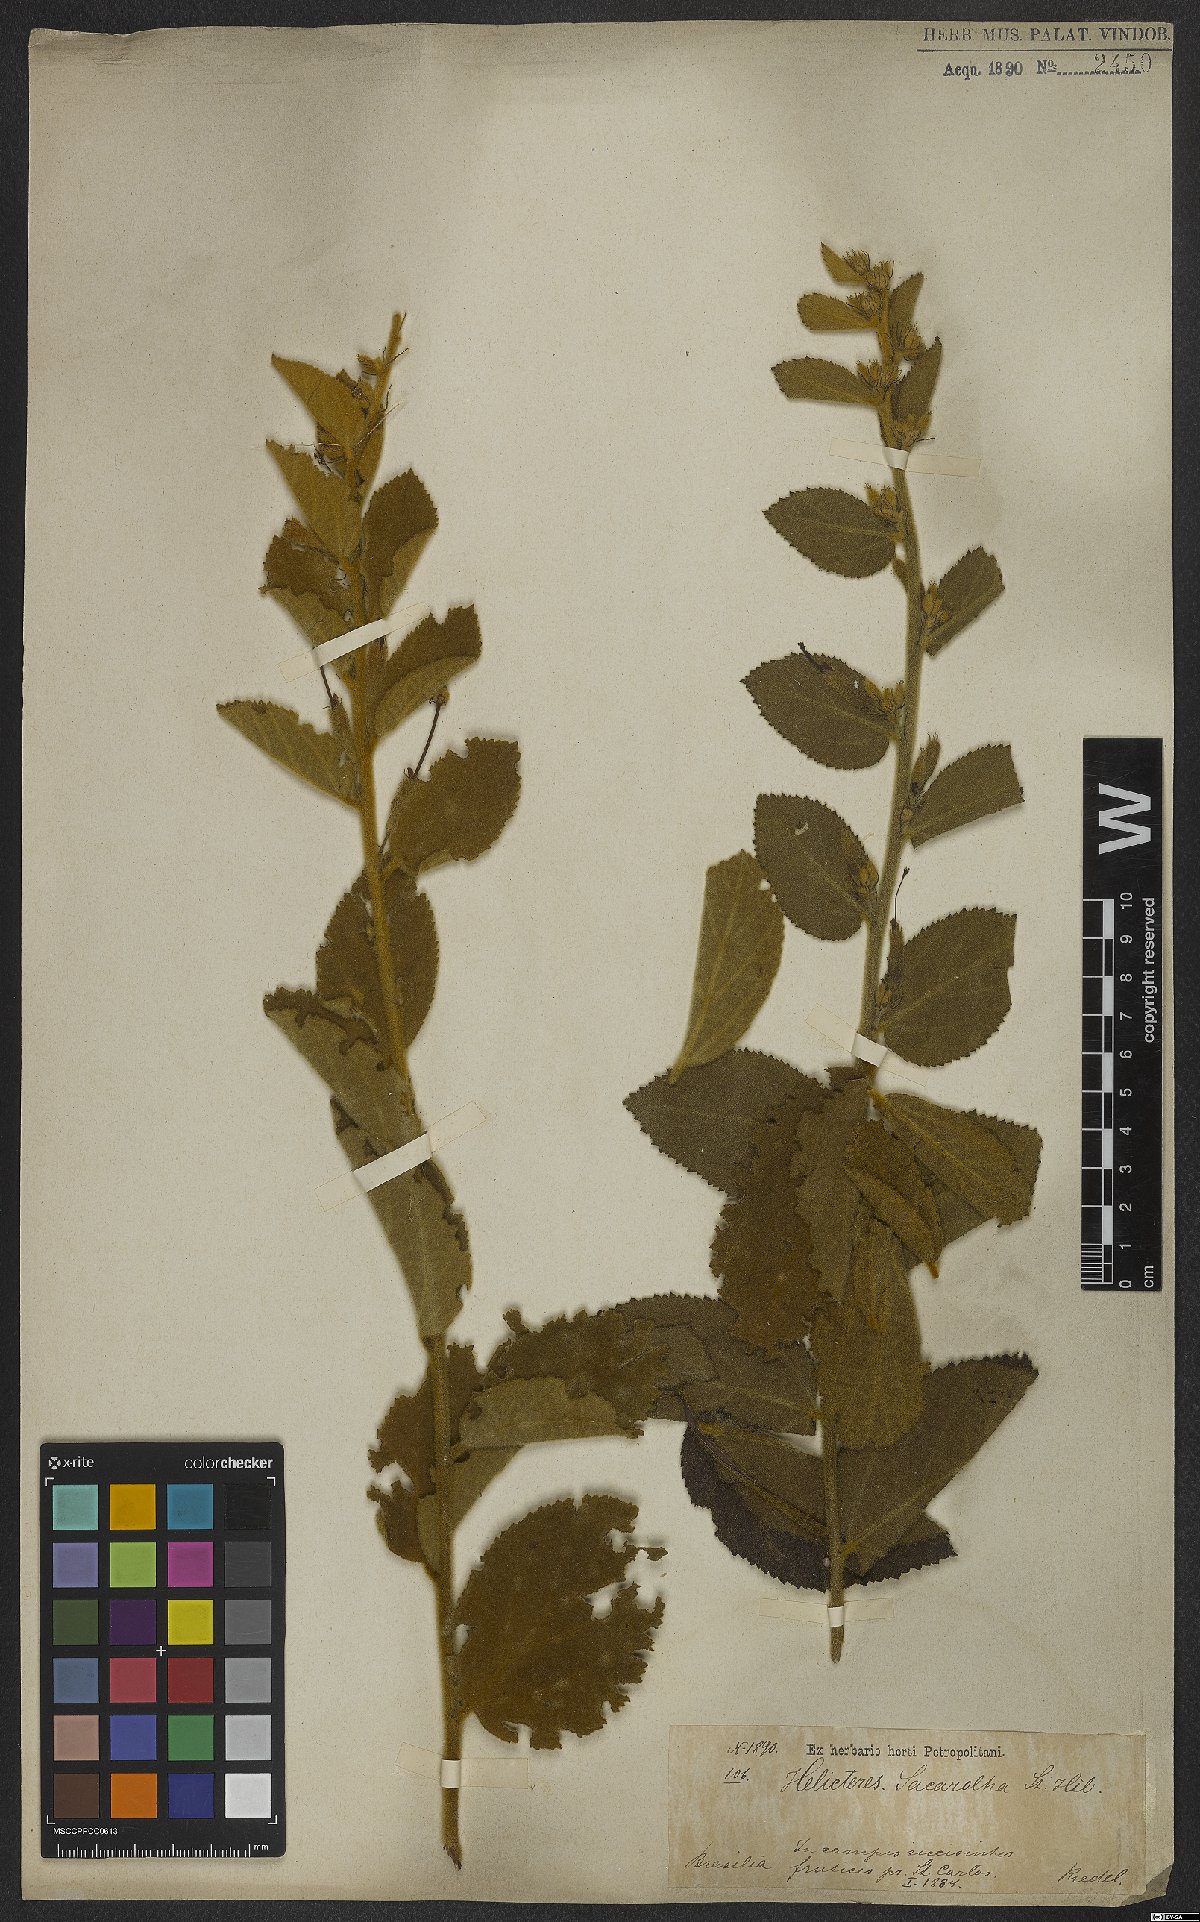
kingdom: Plantae
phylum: Tracheophyta
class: Magnoliopsida
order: Malvales
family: Malvaceae
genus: Helicteres
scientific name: Helicteres sacarolha
